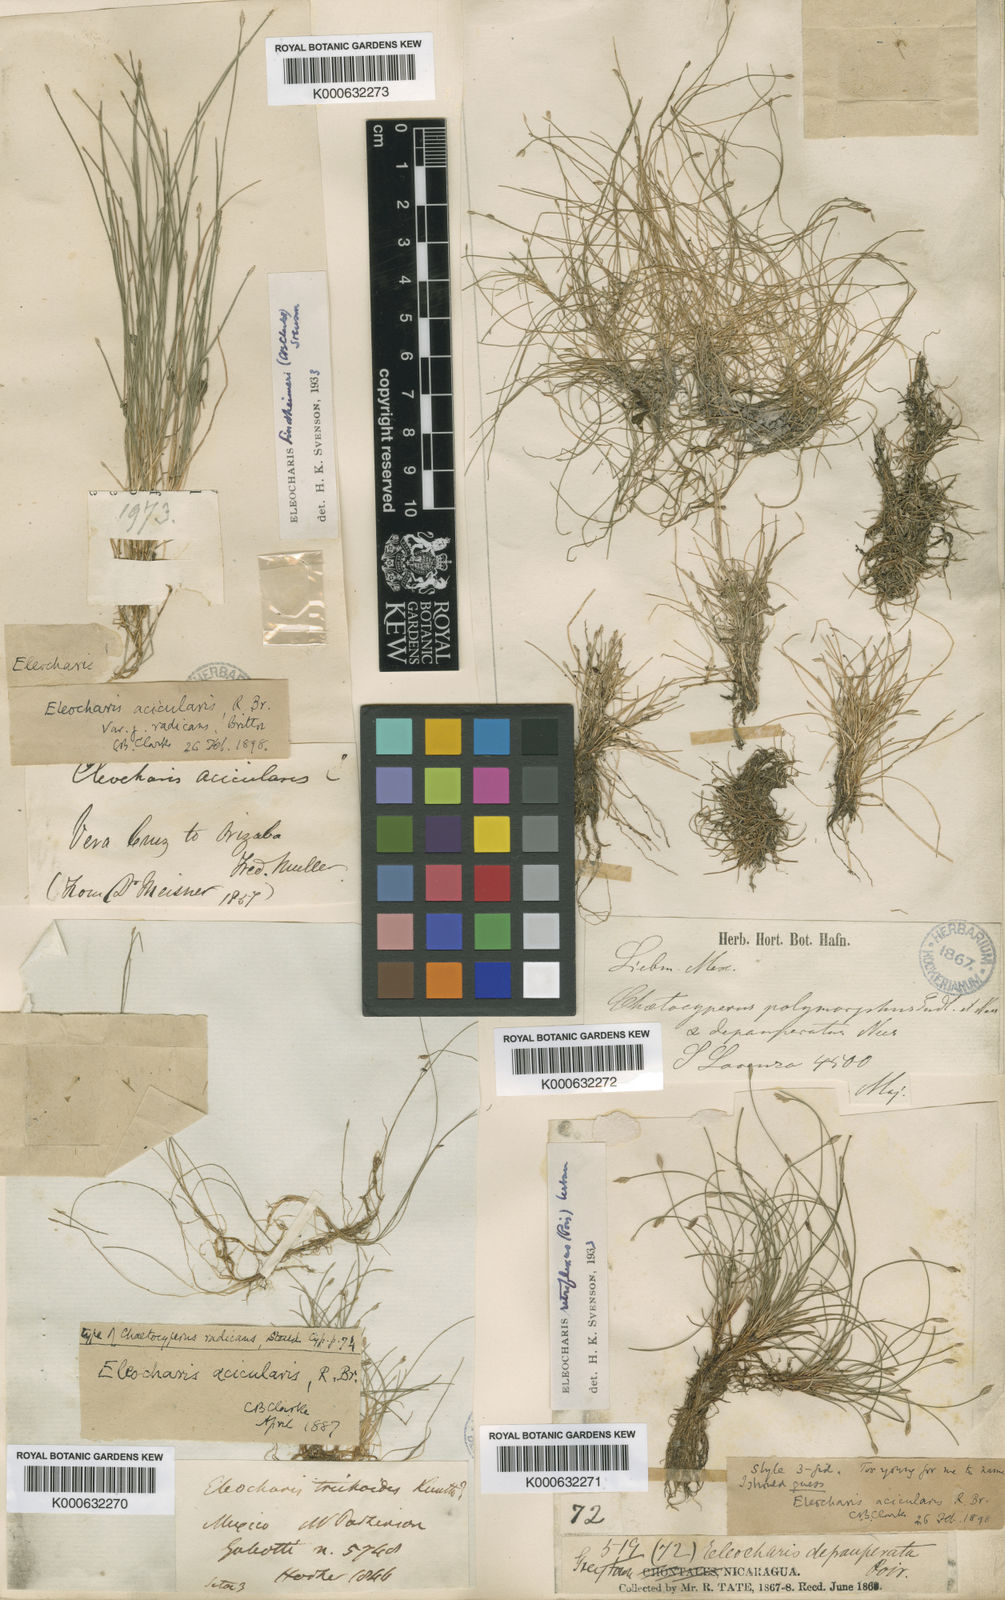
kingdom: Plantae
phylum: Tracheophyta
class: Liliopsida
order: Poales
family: Cyperaceae
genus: Eleocharis
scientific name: Eleocharis acicularis
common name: Needle spike-rush
